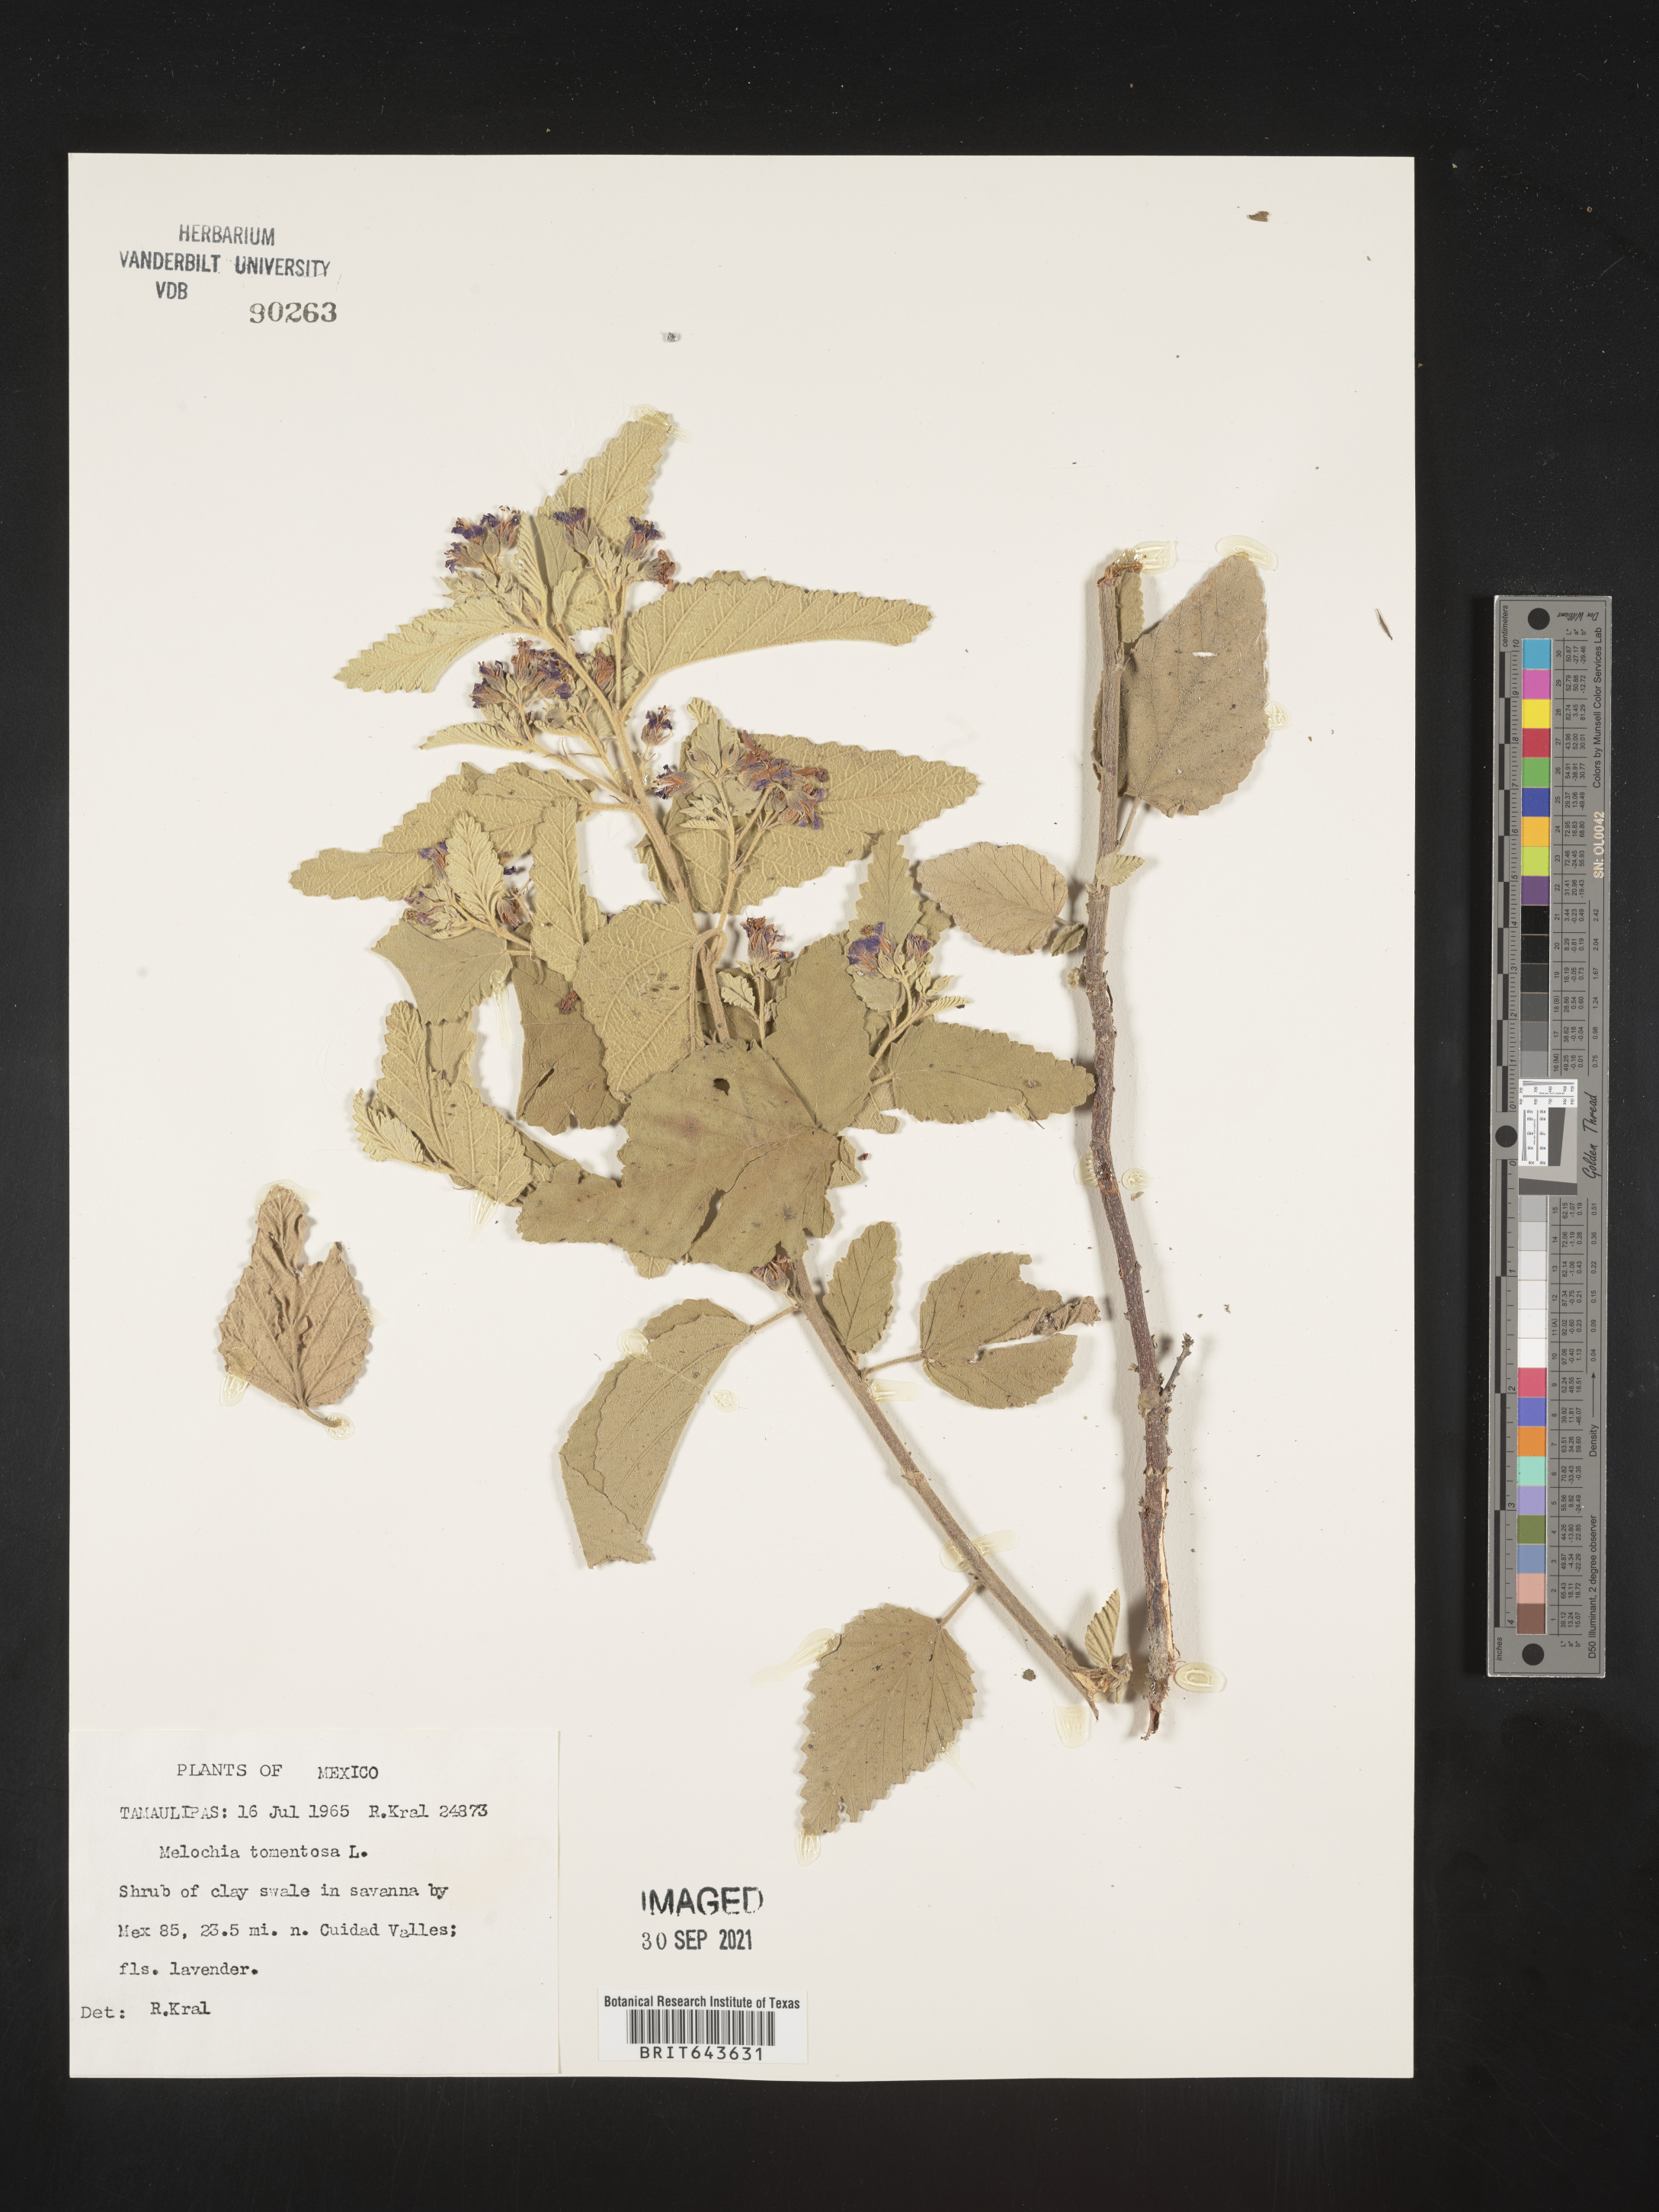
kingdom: Plantae
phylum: Tracheophyta
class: Magnoliopsida
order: Malvales
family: Malvaceae
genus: Melochia
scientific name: Melochia
